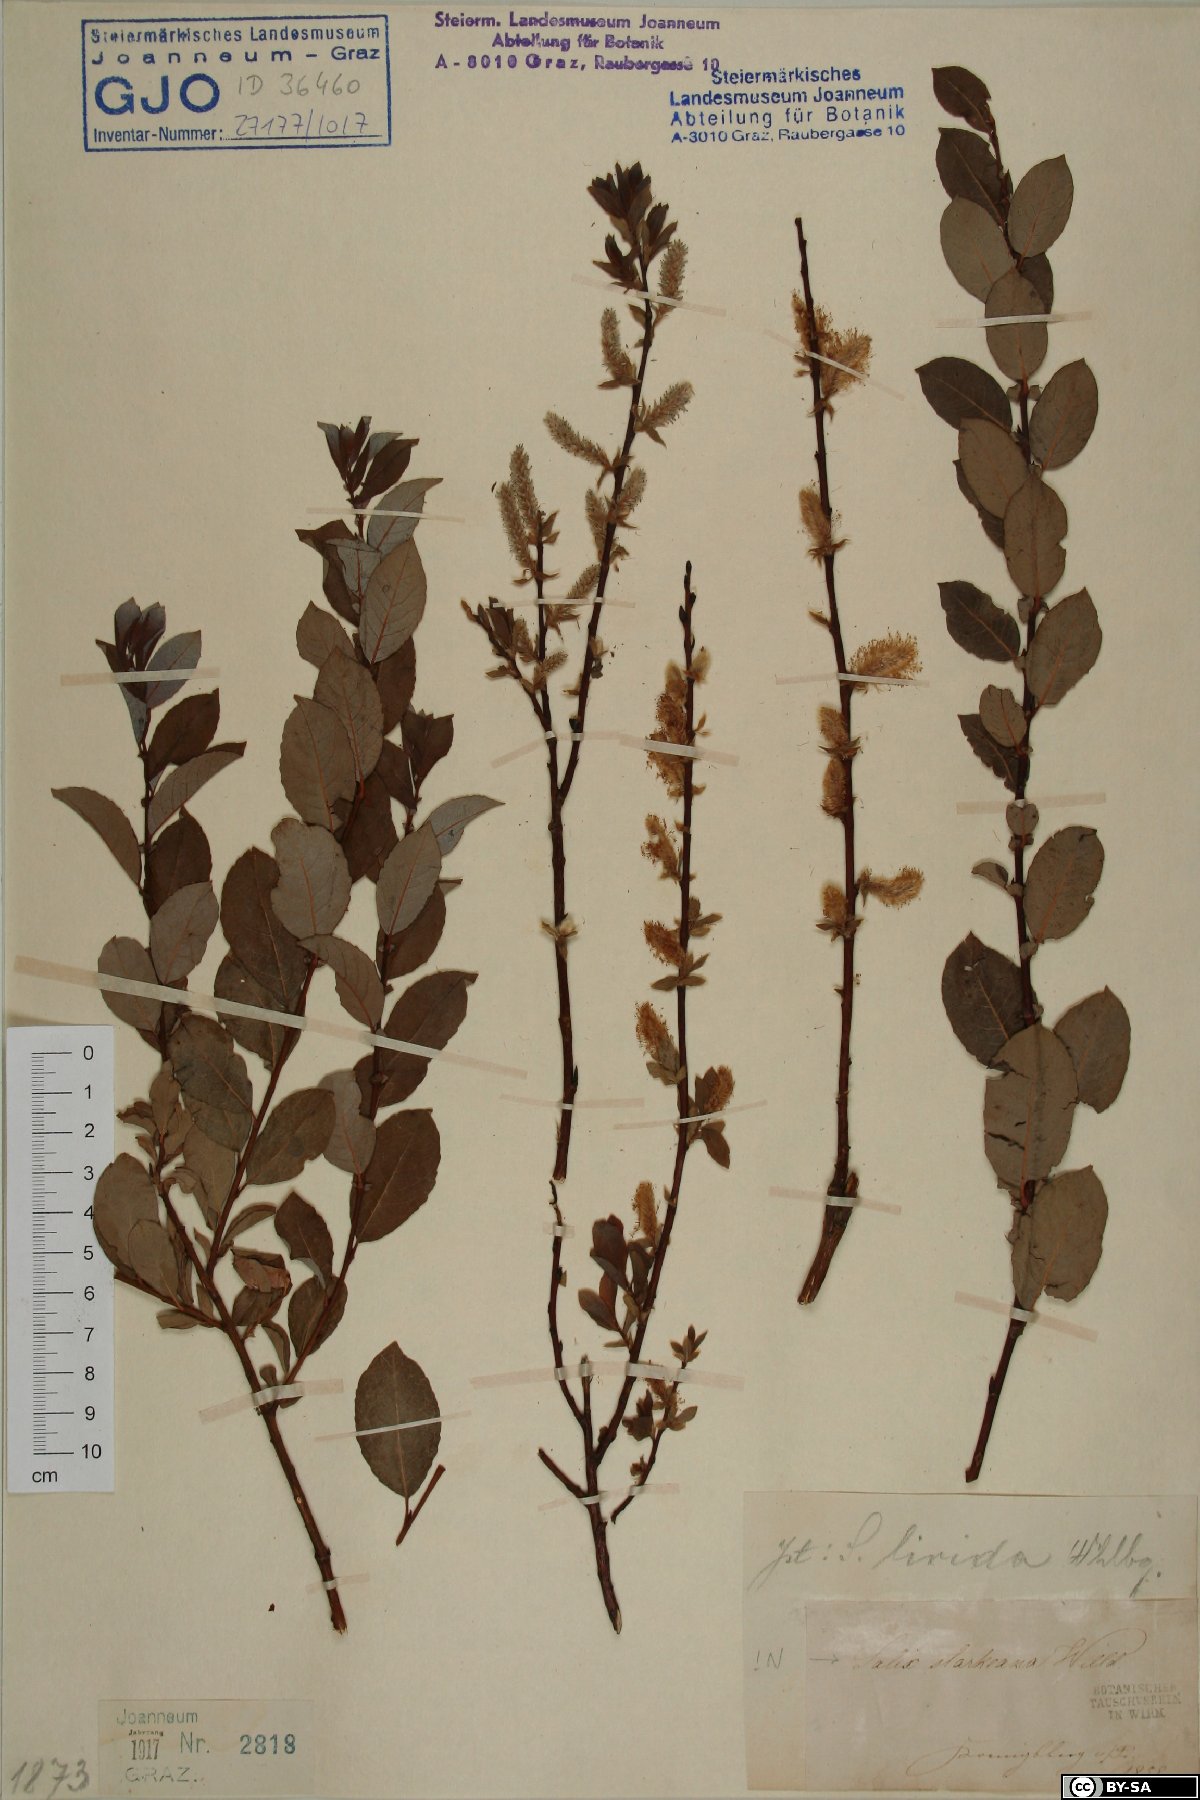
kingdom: Plantae
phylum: Tracheophyta
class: Magnoliopsida
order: Malpighiales
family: Salicaceae
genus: Salix
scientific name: Salix starkeana
